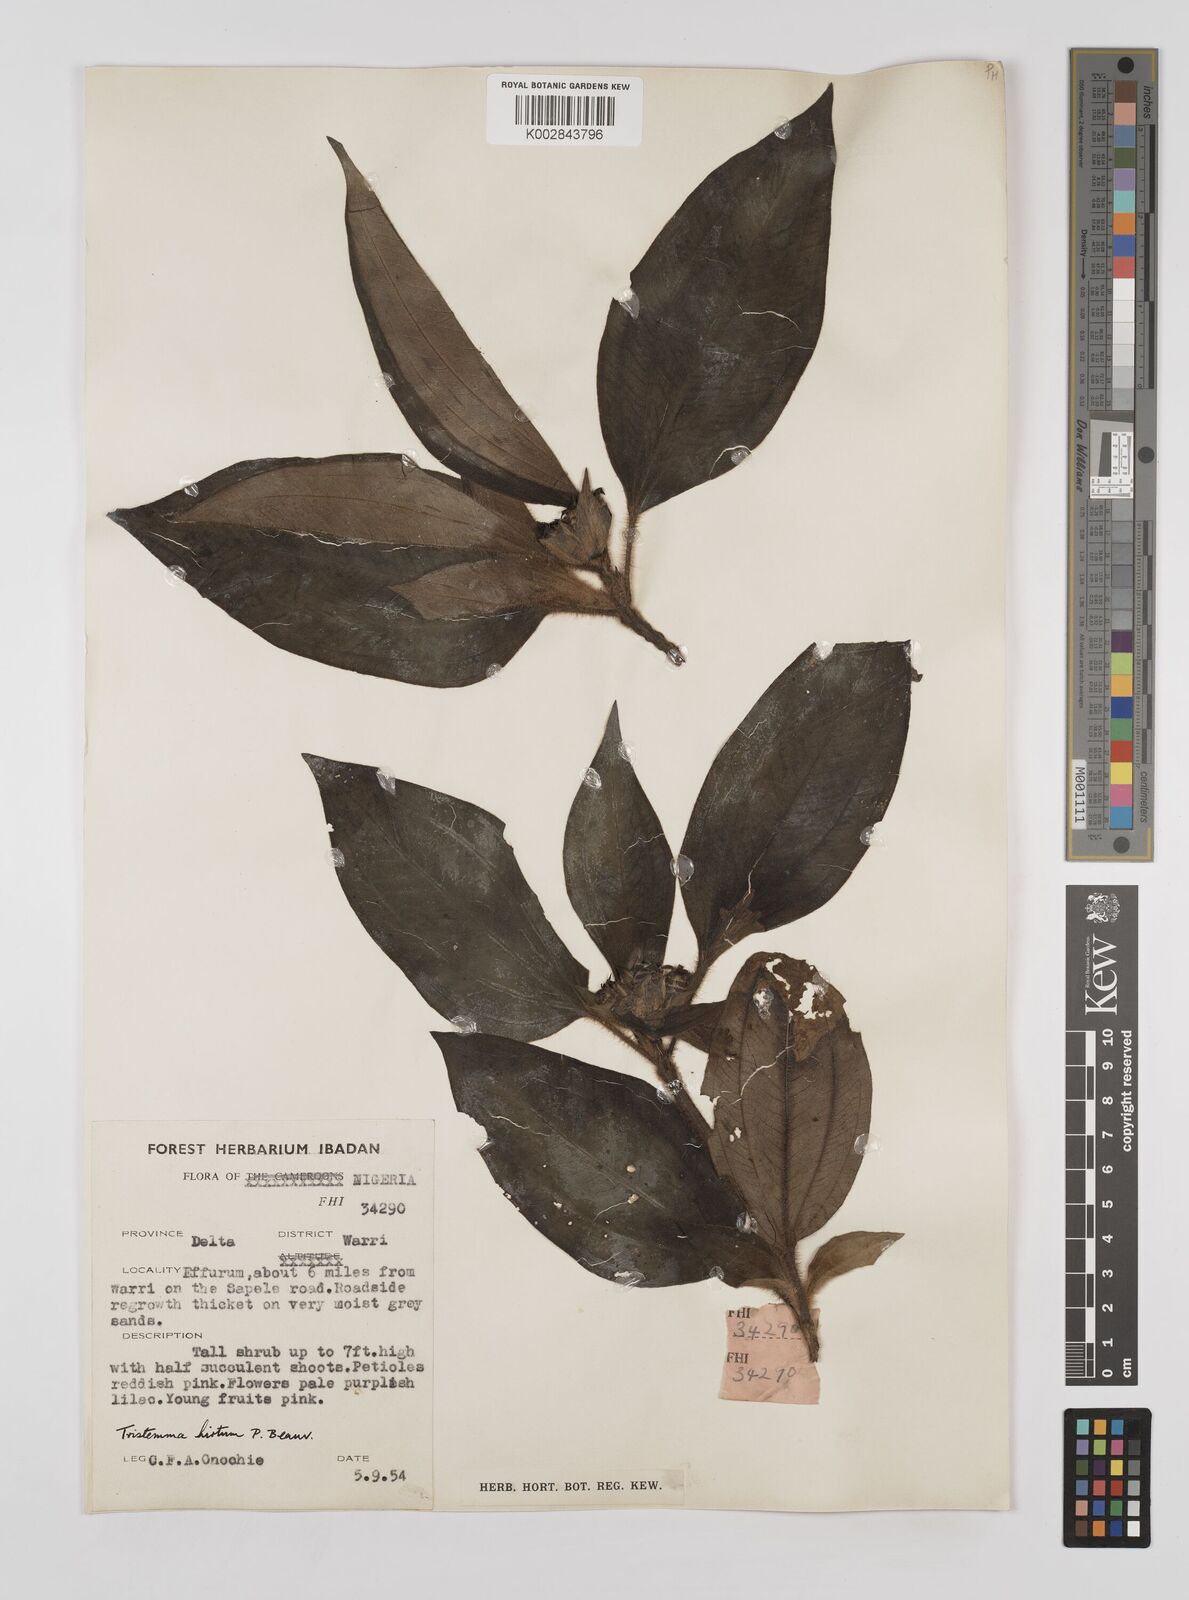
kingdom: Plantae
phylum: Tracheophyta
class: Magnoliopsida
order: Myrtales
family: Melastomataceae
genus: Tristemma
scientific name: Tristemma hirtum
